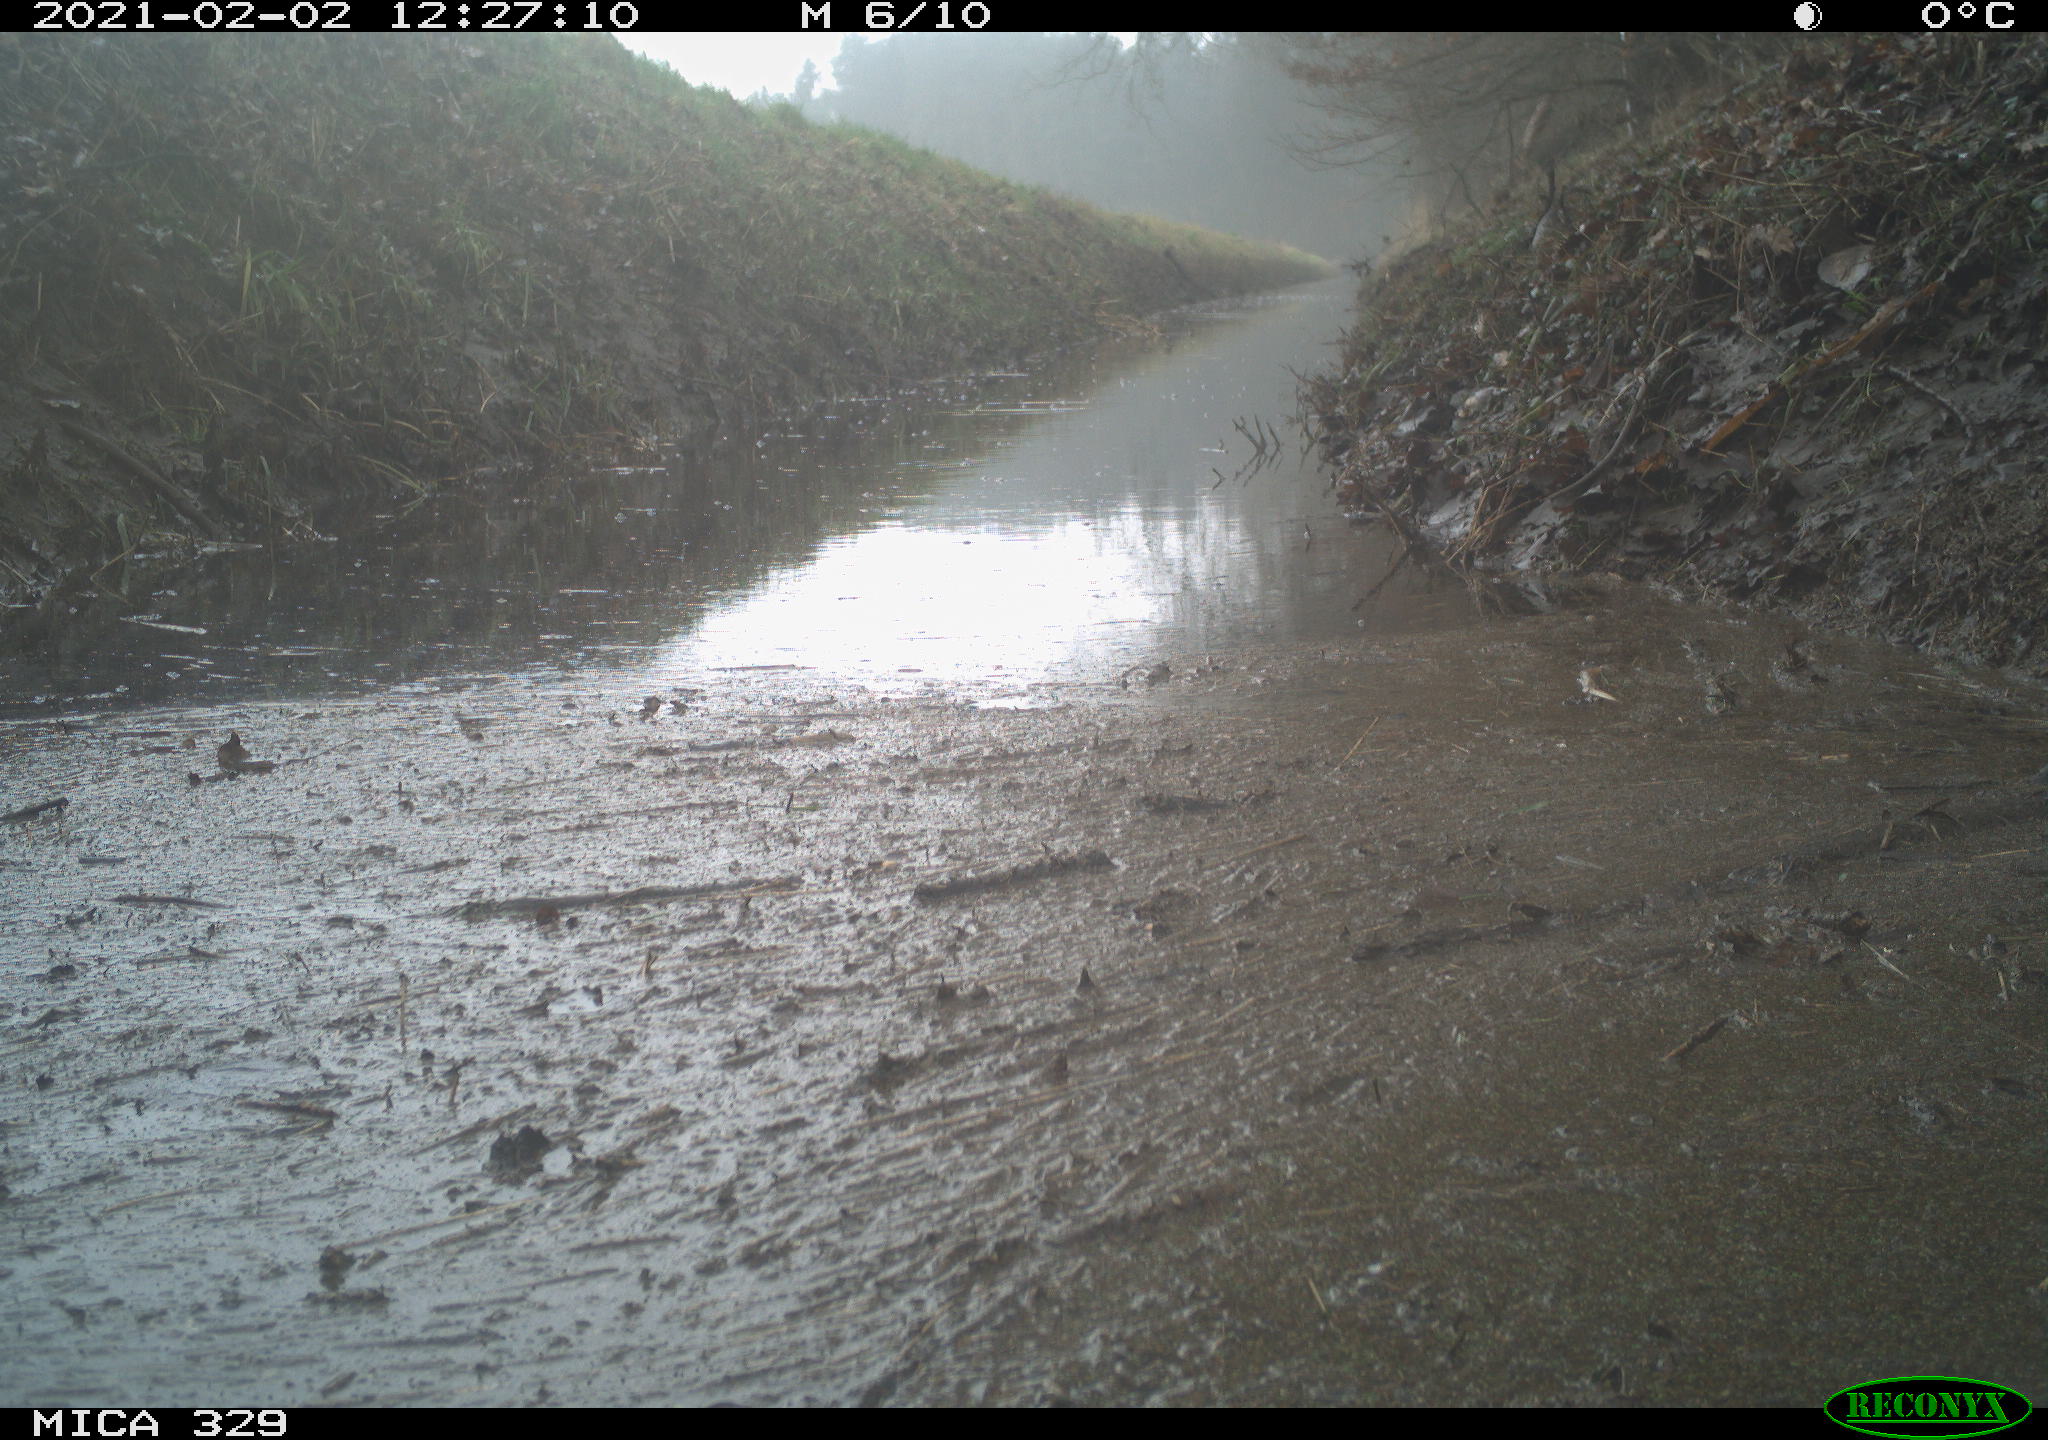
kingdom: Animalia
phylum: Chordata
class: Aves
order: Passeriformes
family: Muscicapidae
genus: Erithacus
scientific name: Erithacus rubecula
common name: European robin
